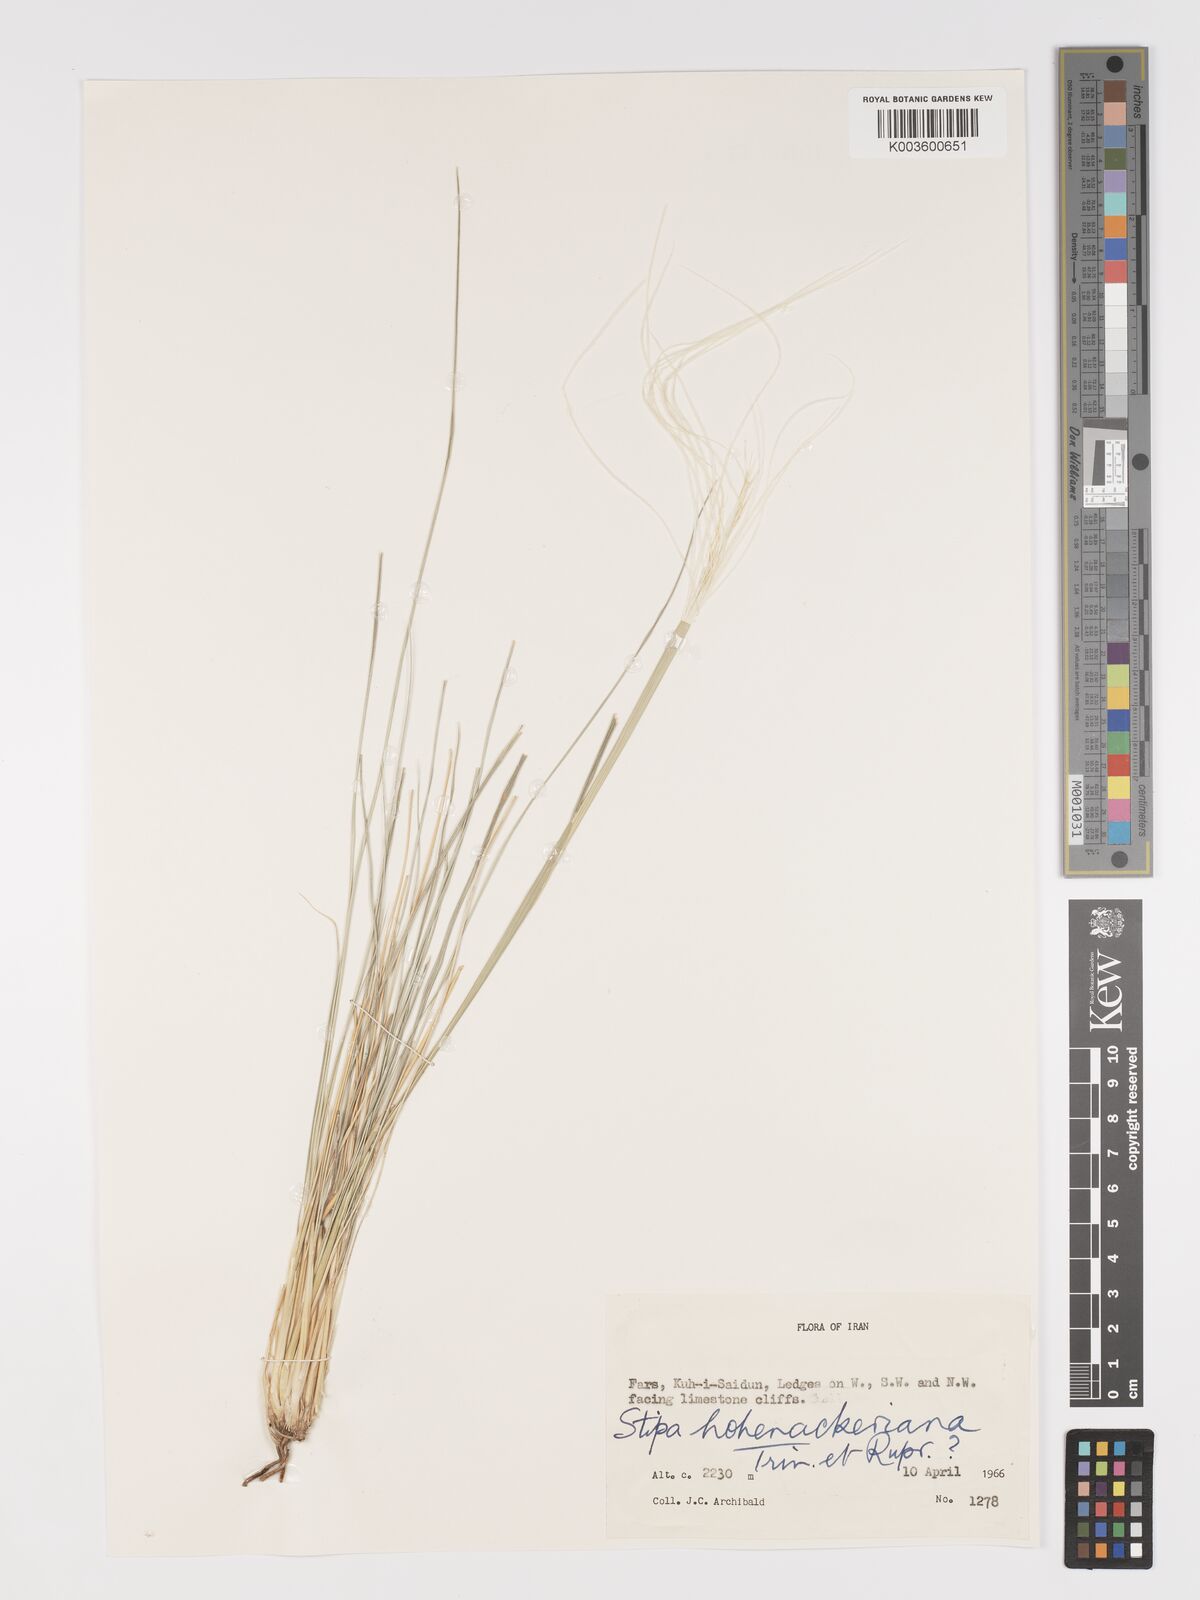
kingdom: Plantae
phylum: Tracheophyta
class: Liliopsida
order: Poales
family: Poaceae
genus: Stipa
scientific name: Stipa hohenackeriana
